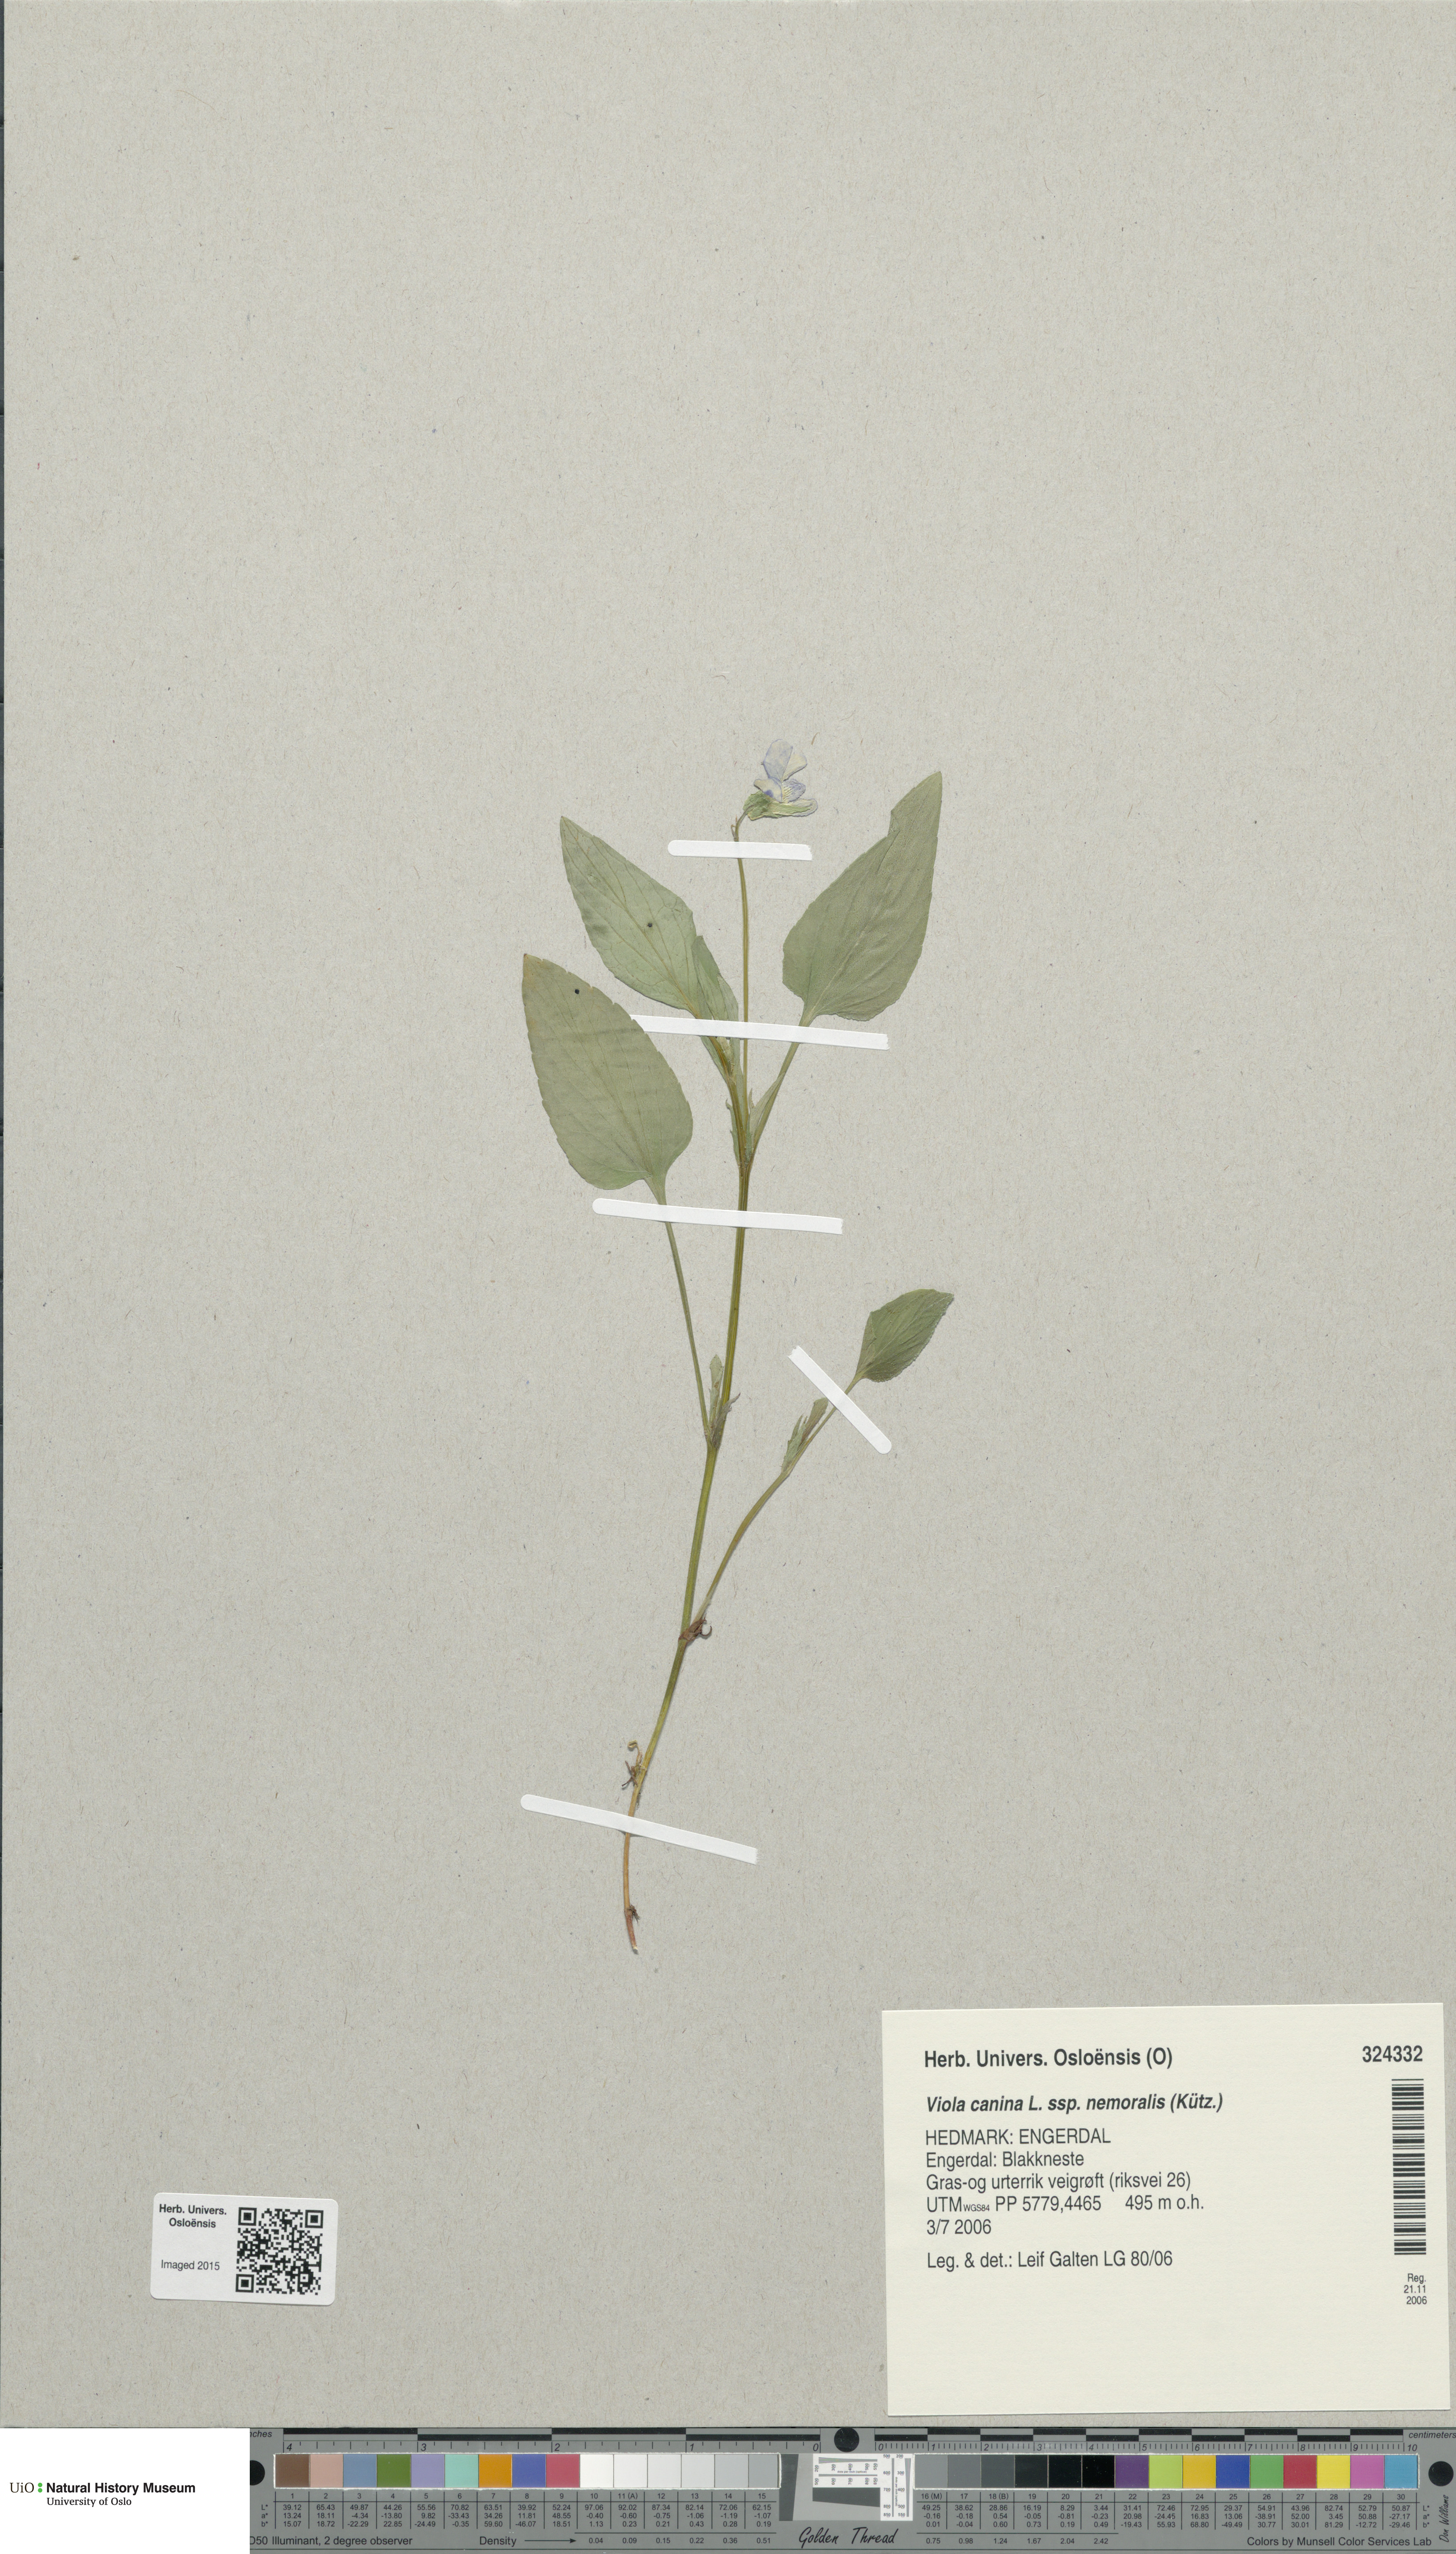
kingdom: Plantae
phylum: Tracheophyta
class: Magnoliopsida
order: Malpighiales
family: Violaceae
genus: Viola
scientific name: Viola ruppii
